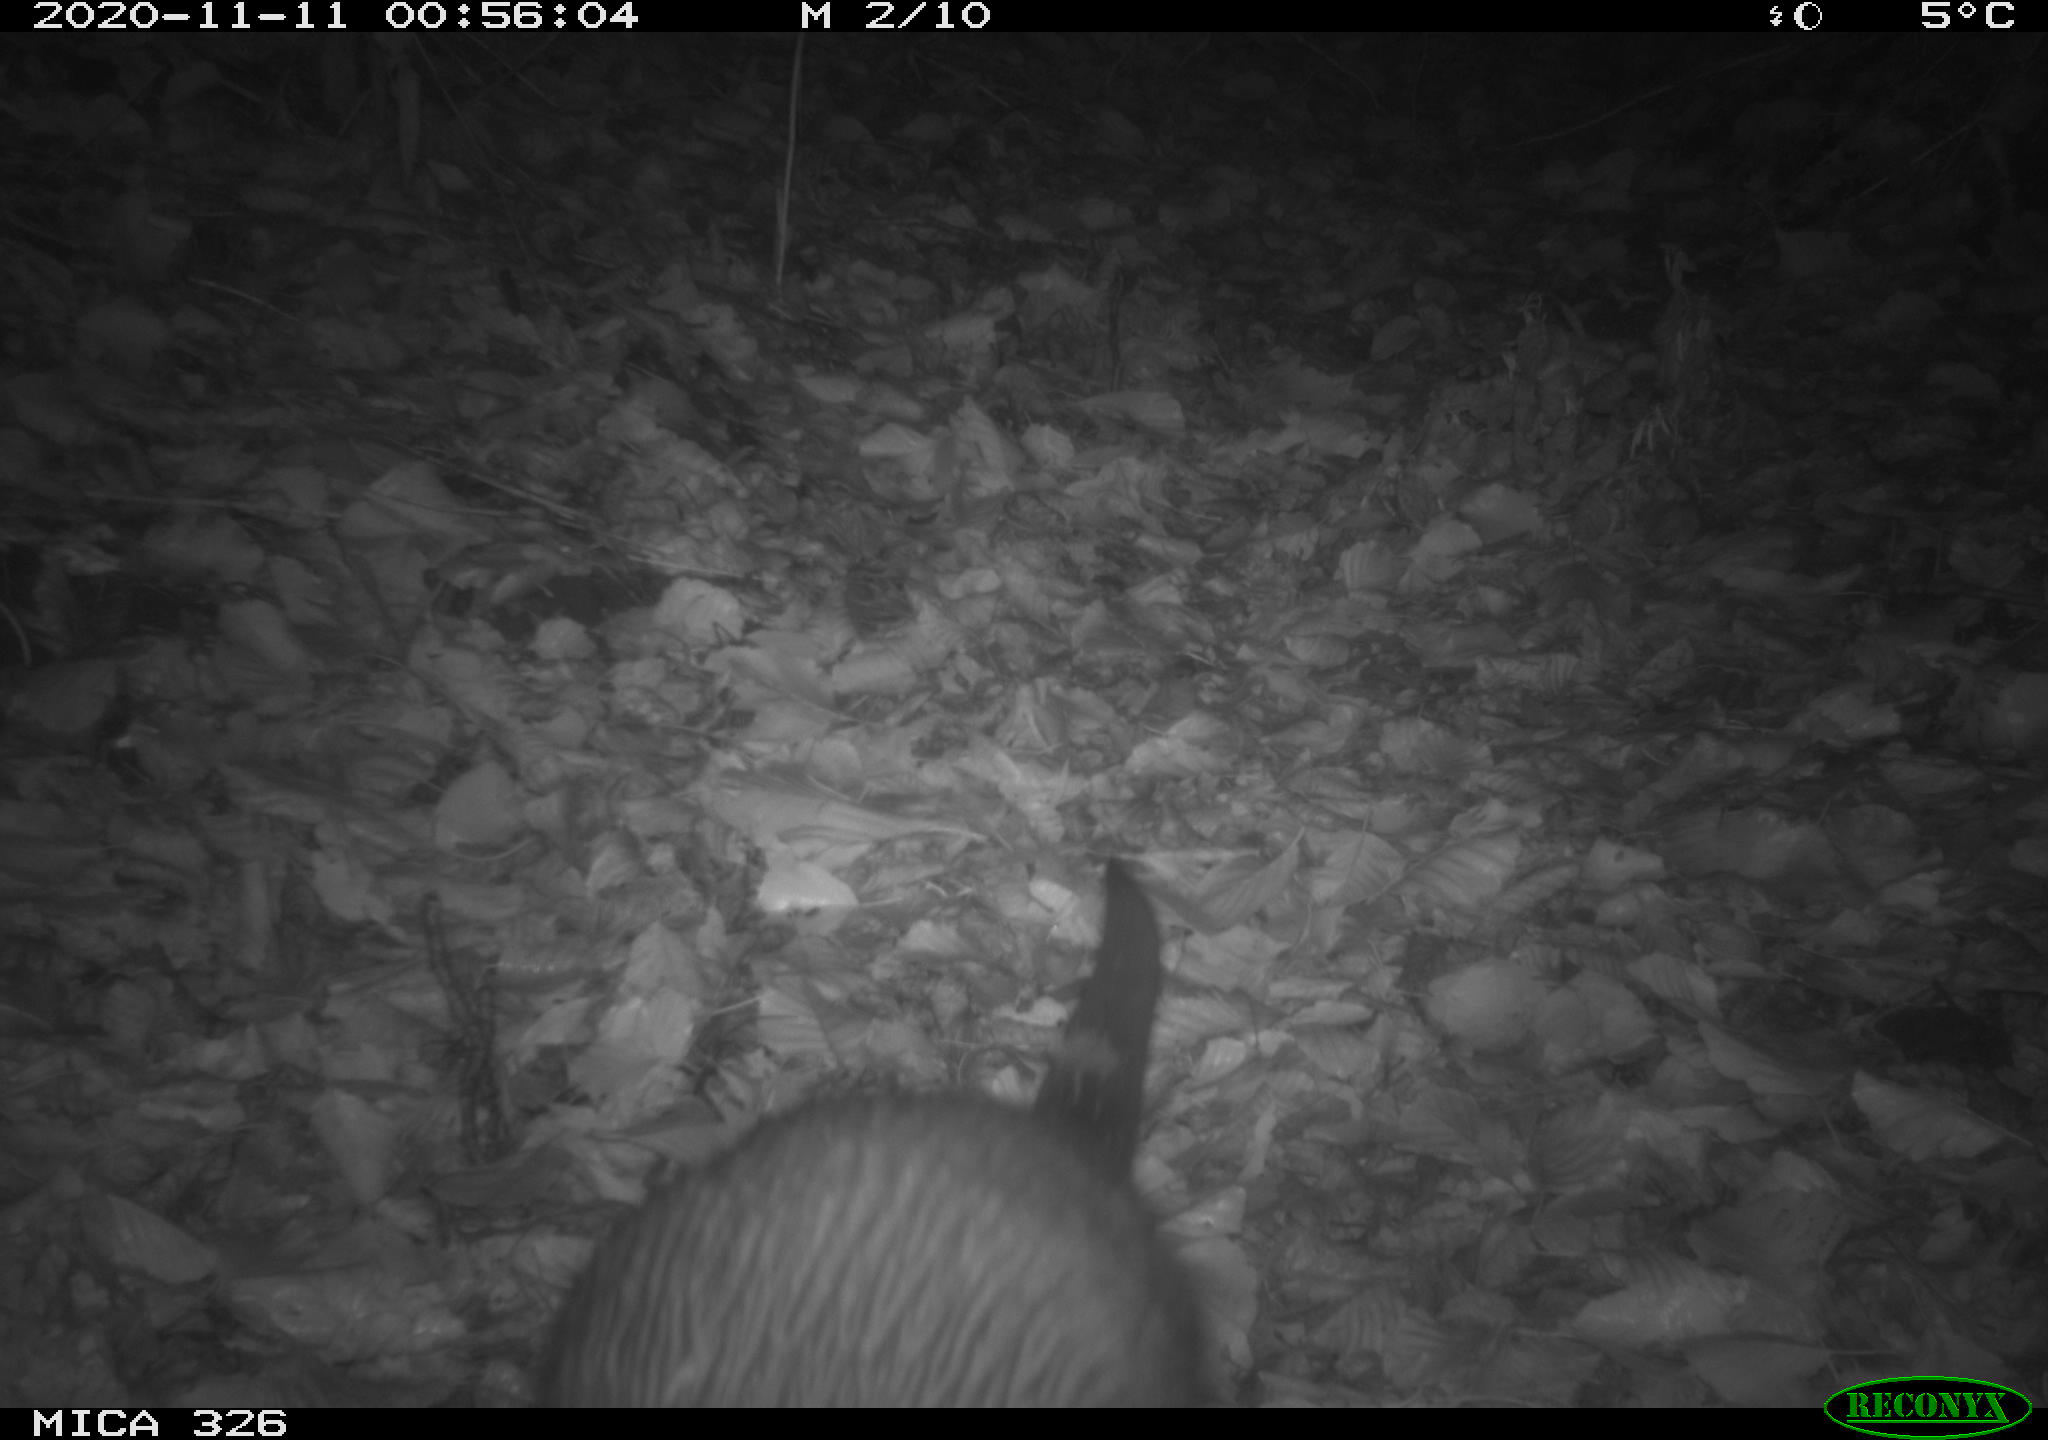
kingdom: Animalia
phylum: Chordata
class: Mammalia
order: Carnivora
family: Mustelidae
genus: Lutra
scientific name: Lutra lutra
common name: European otter
